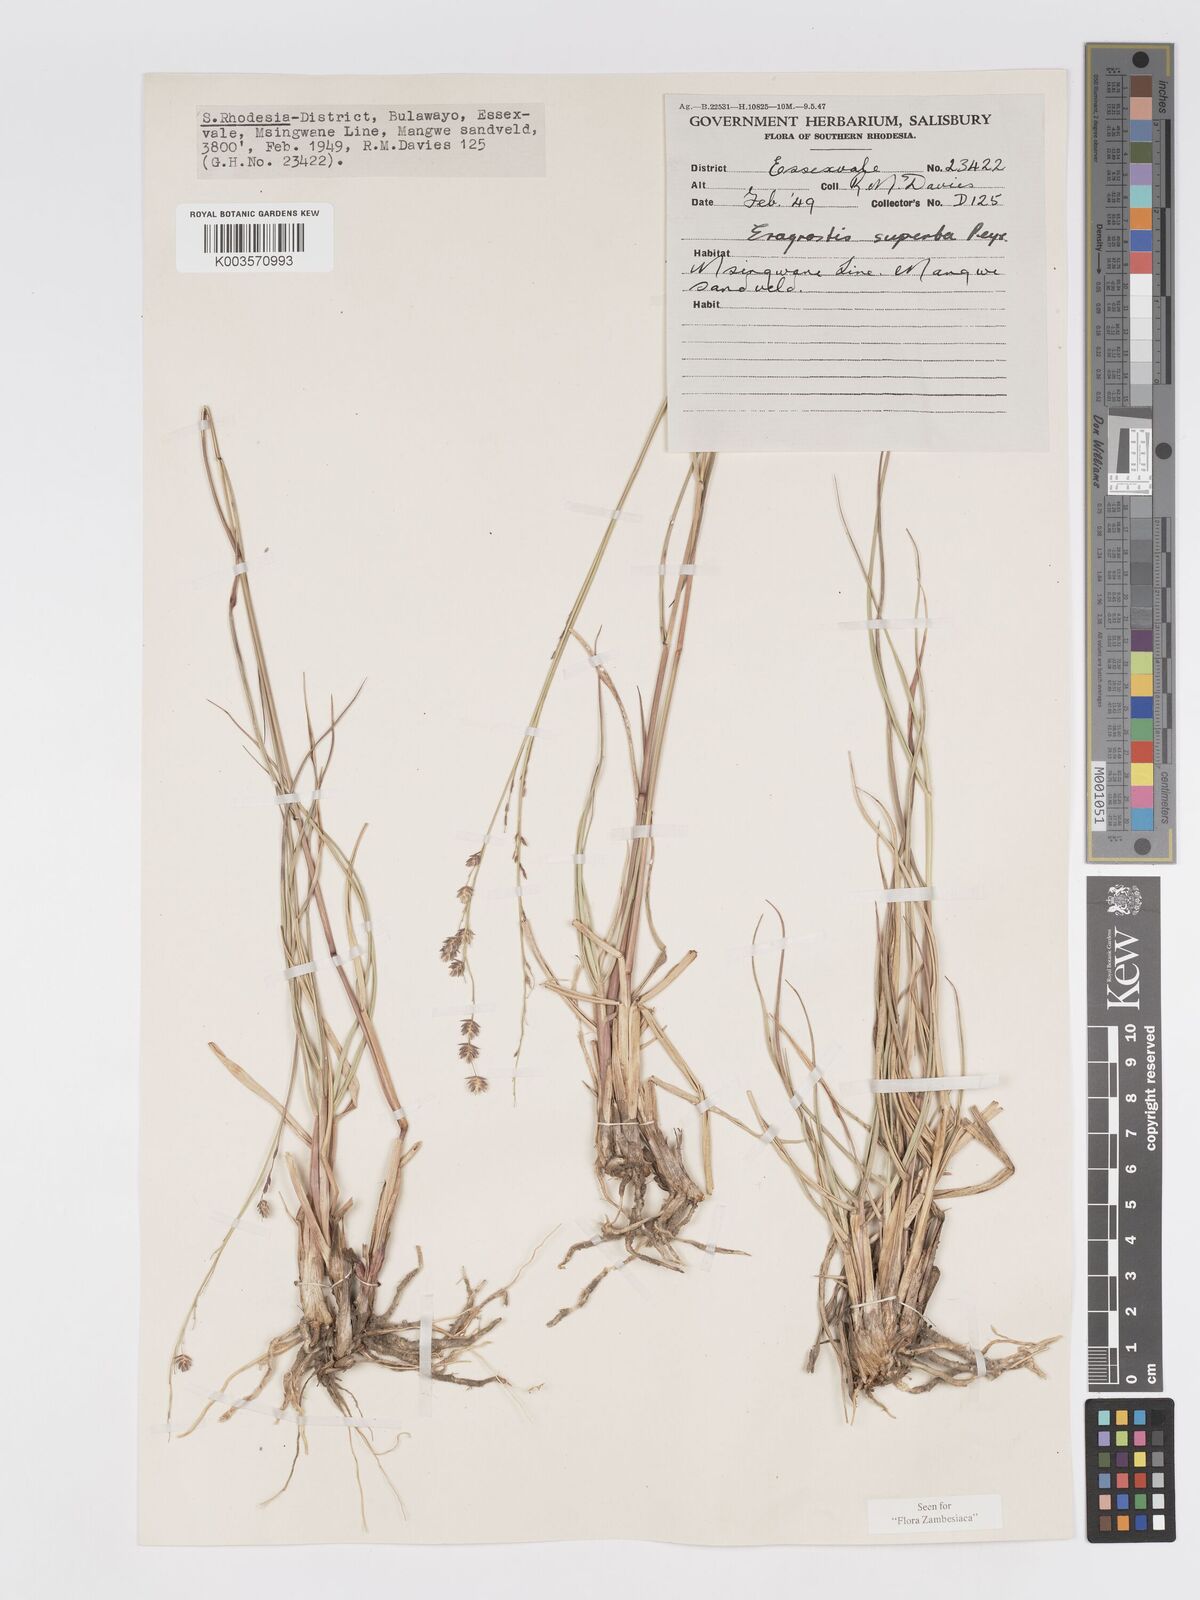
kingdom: Plantae
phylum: Tracheophyta
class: Liliopsida
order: Poales
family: Poaceae
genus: Eragrostis
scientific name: Eragrostis superba
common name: Wilman lovegrass
